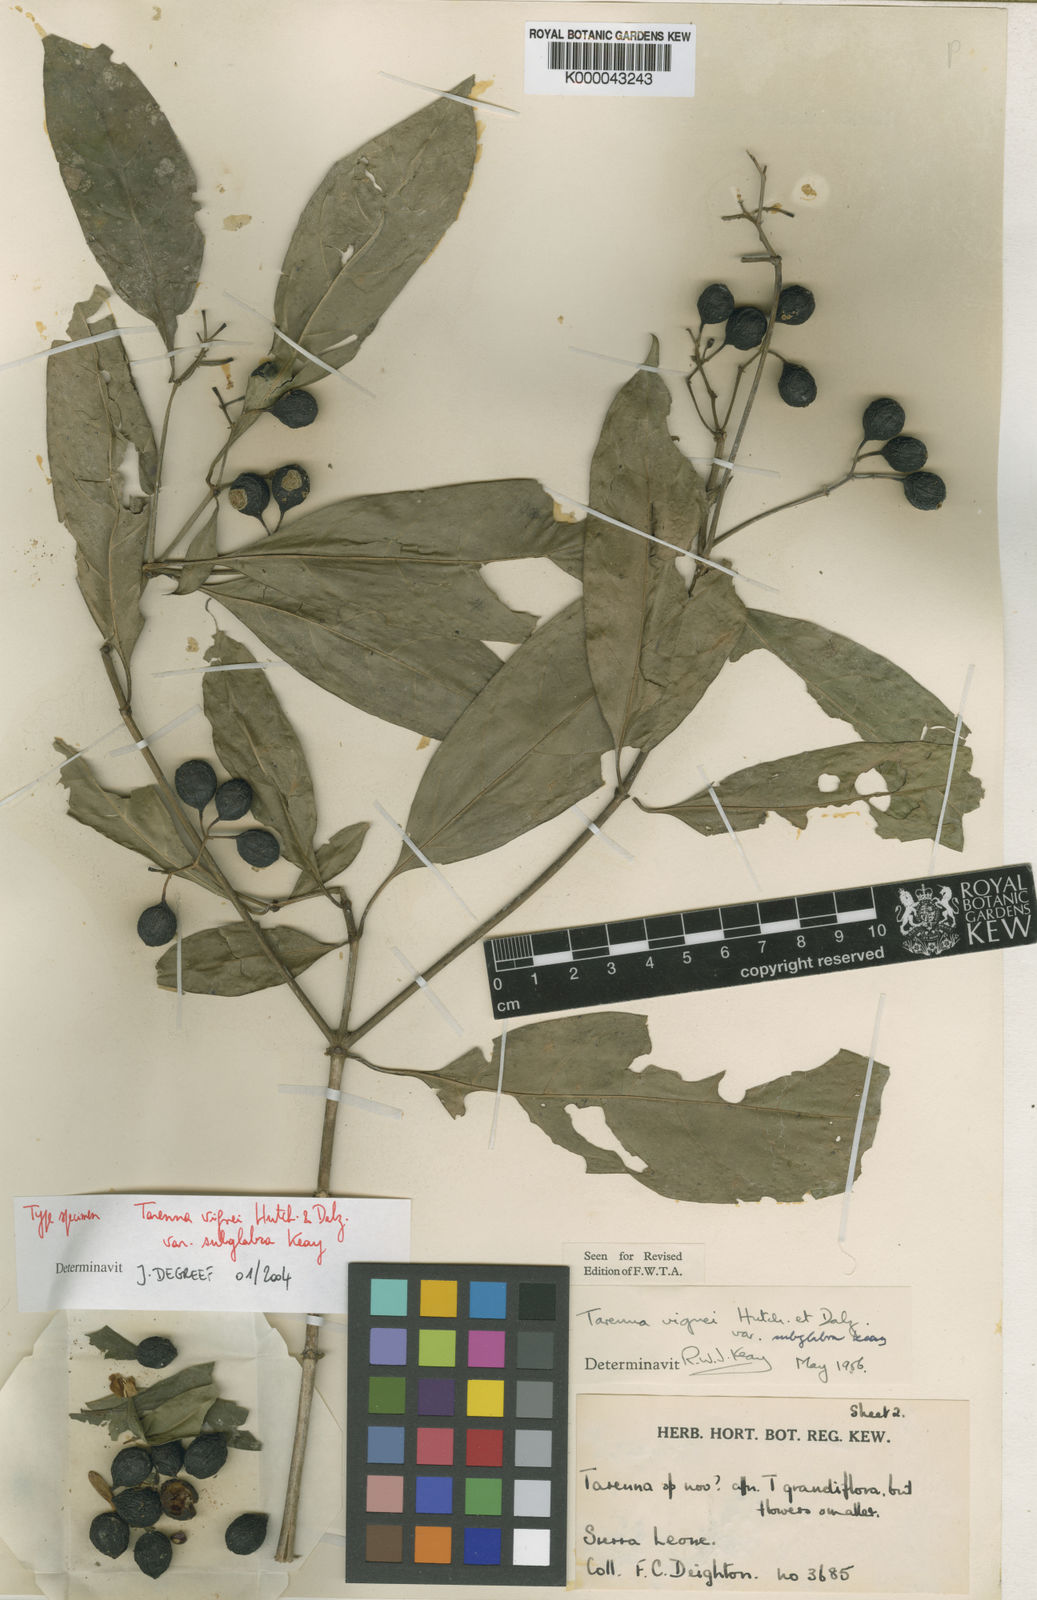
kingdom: Plantae
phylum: Tracheophyta
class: Magnoliopsida
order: Gentianales
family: Rubiaceae
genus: Tarenna
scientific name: Tarenna vignei
